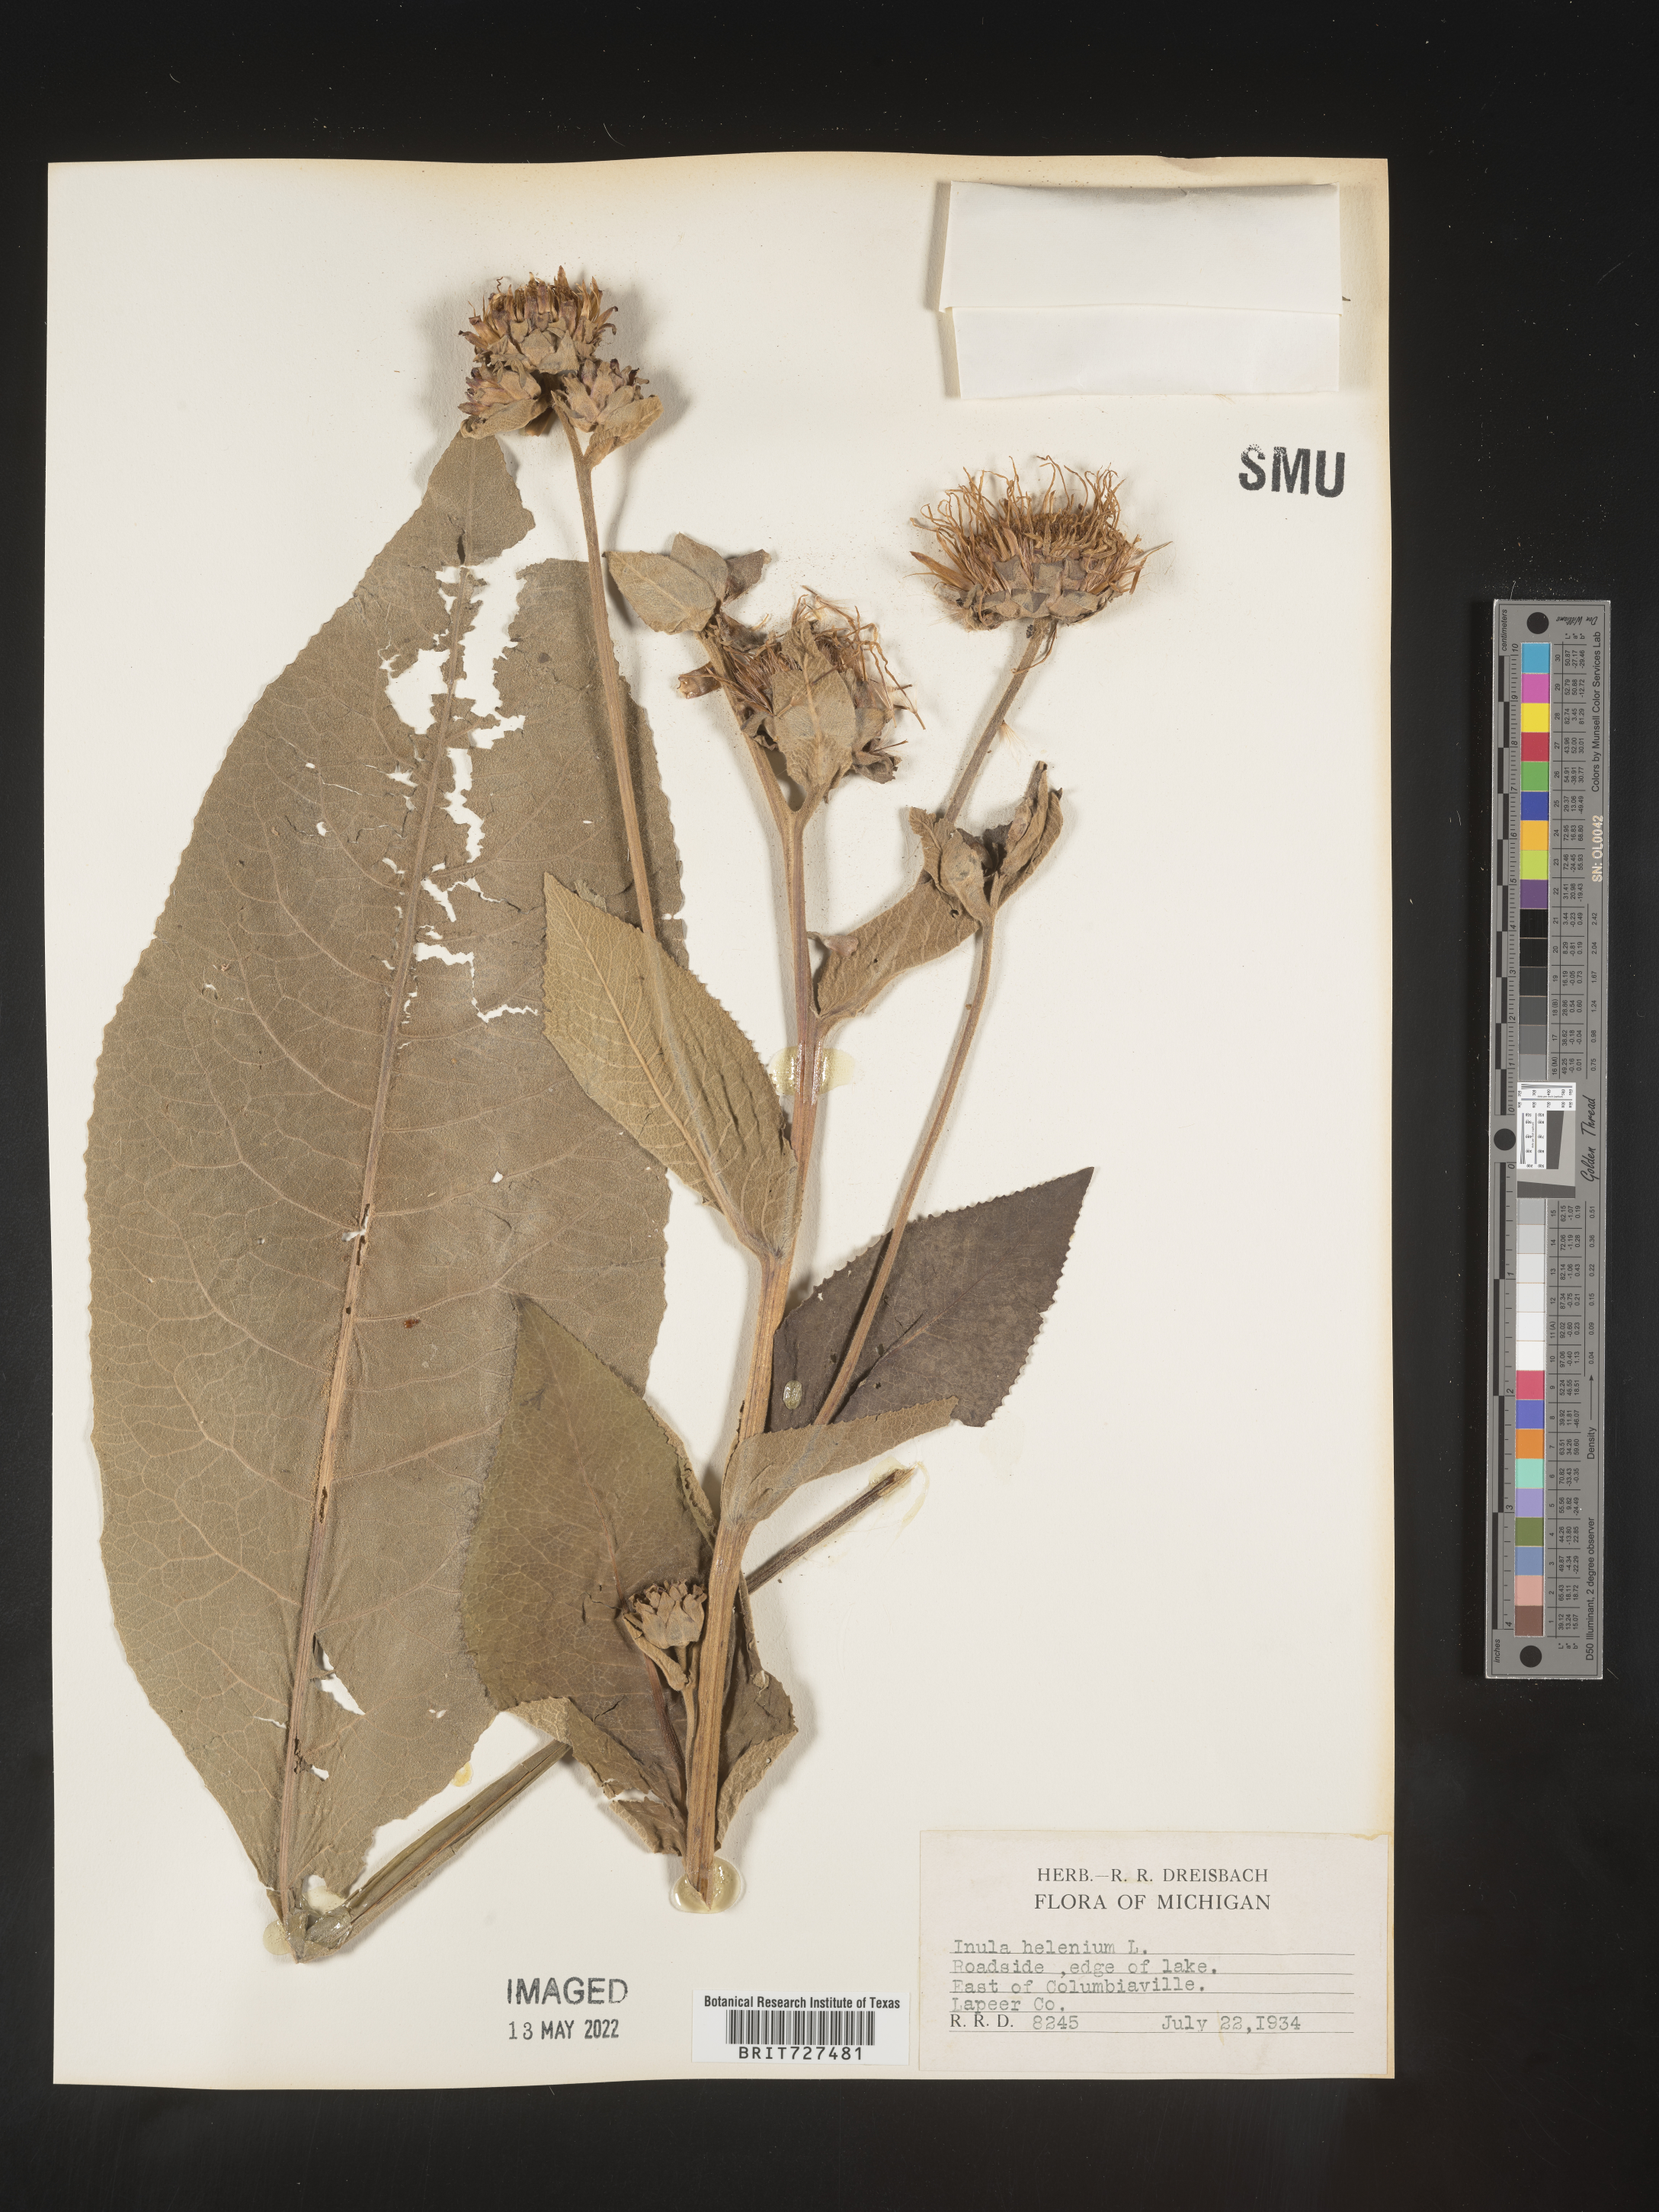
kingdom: Plantae
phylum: Tracheophyta
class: Magnoliopsida
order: Asterales
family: Asteraceae
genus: Inula
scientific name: Inula helenium
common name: Elecampane
